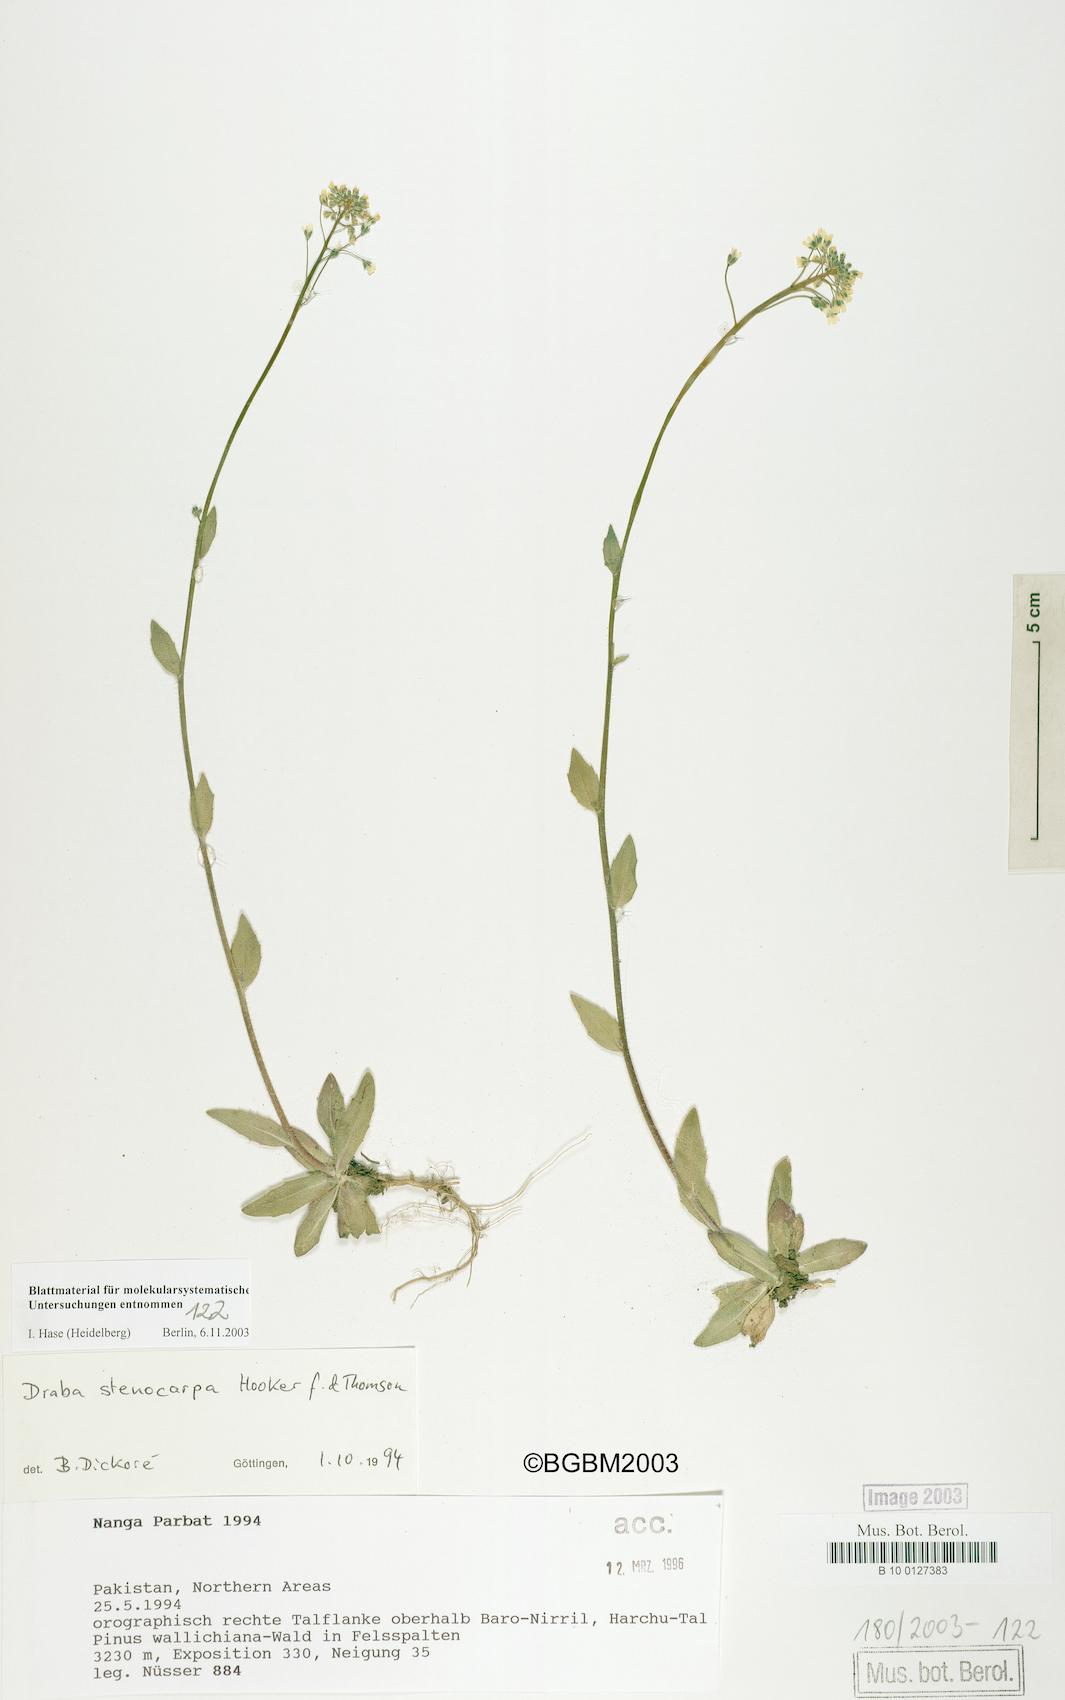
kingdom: Plantae
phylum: Tracheophyta
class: Magnoliopsida
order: Brassicales
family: Brassicaceae
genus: Draba
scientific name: Draba
